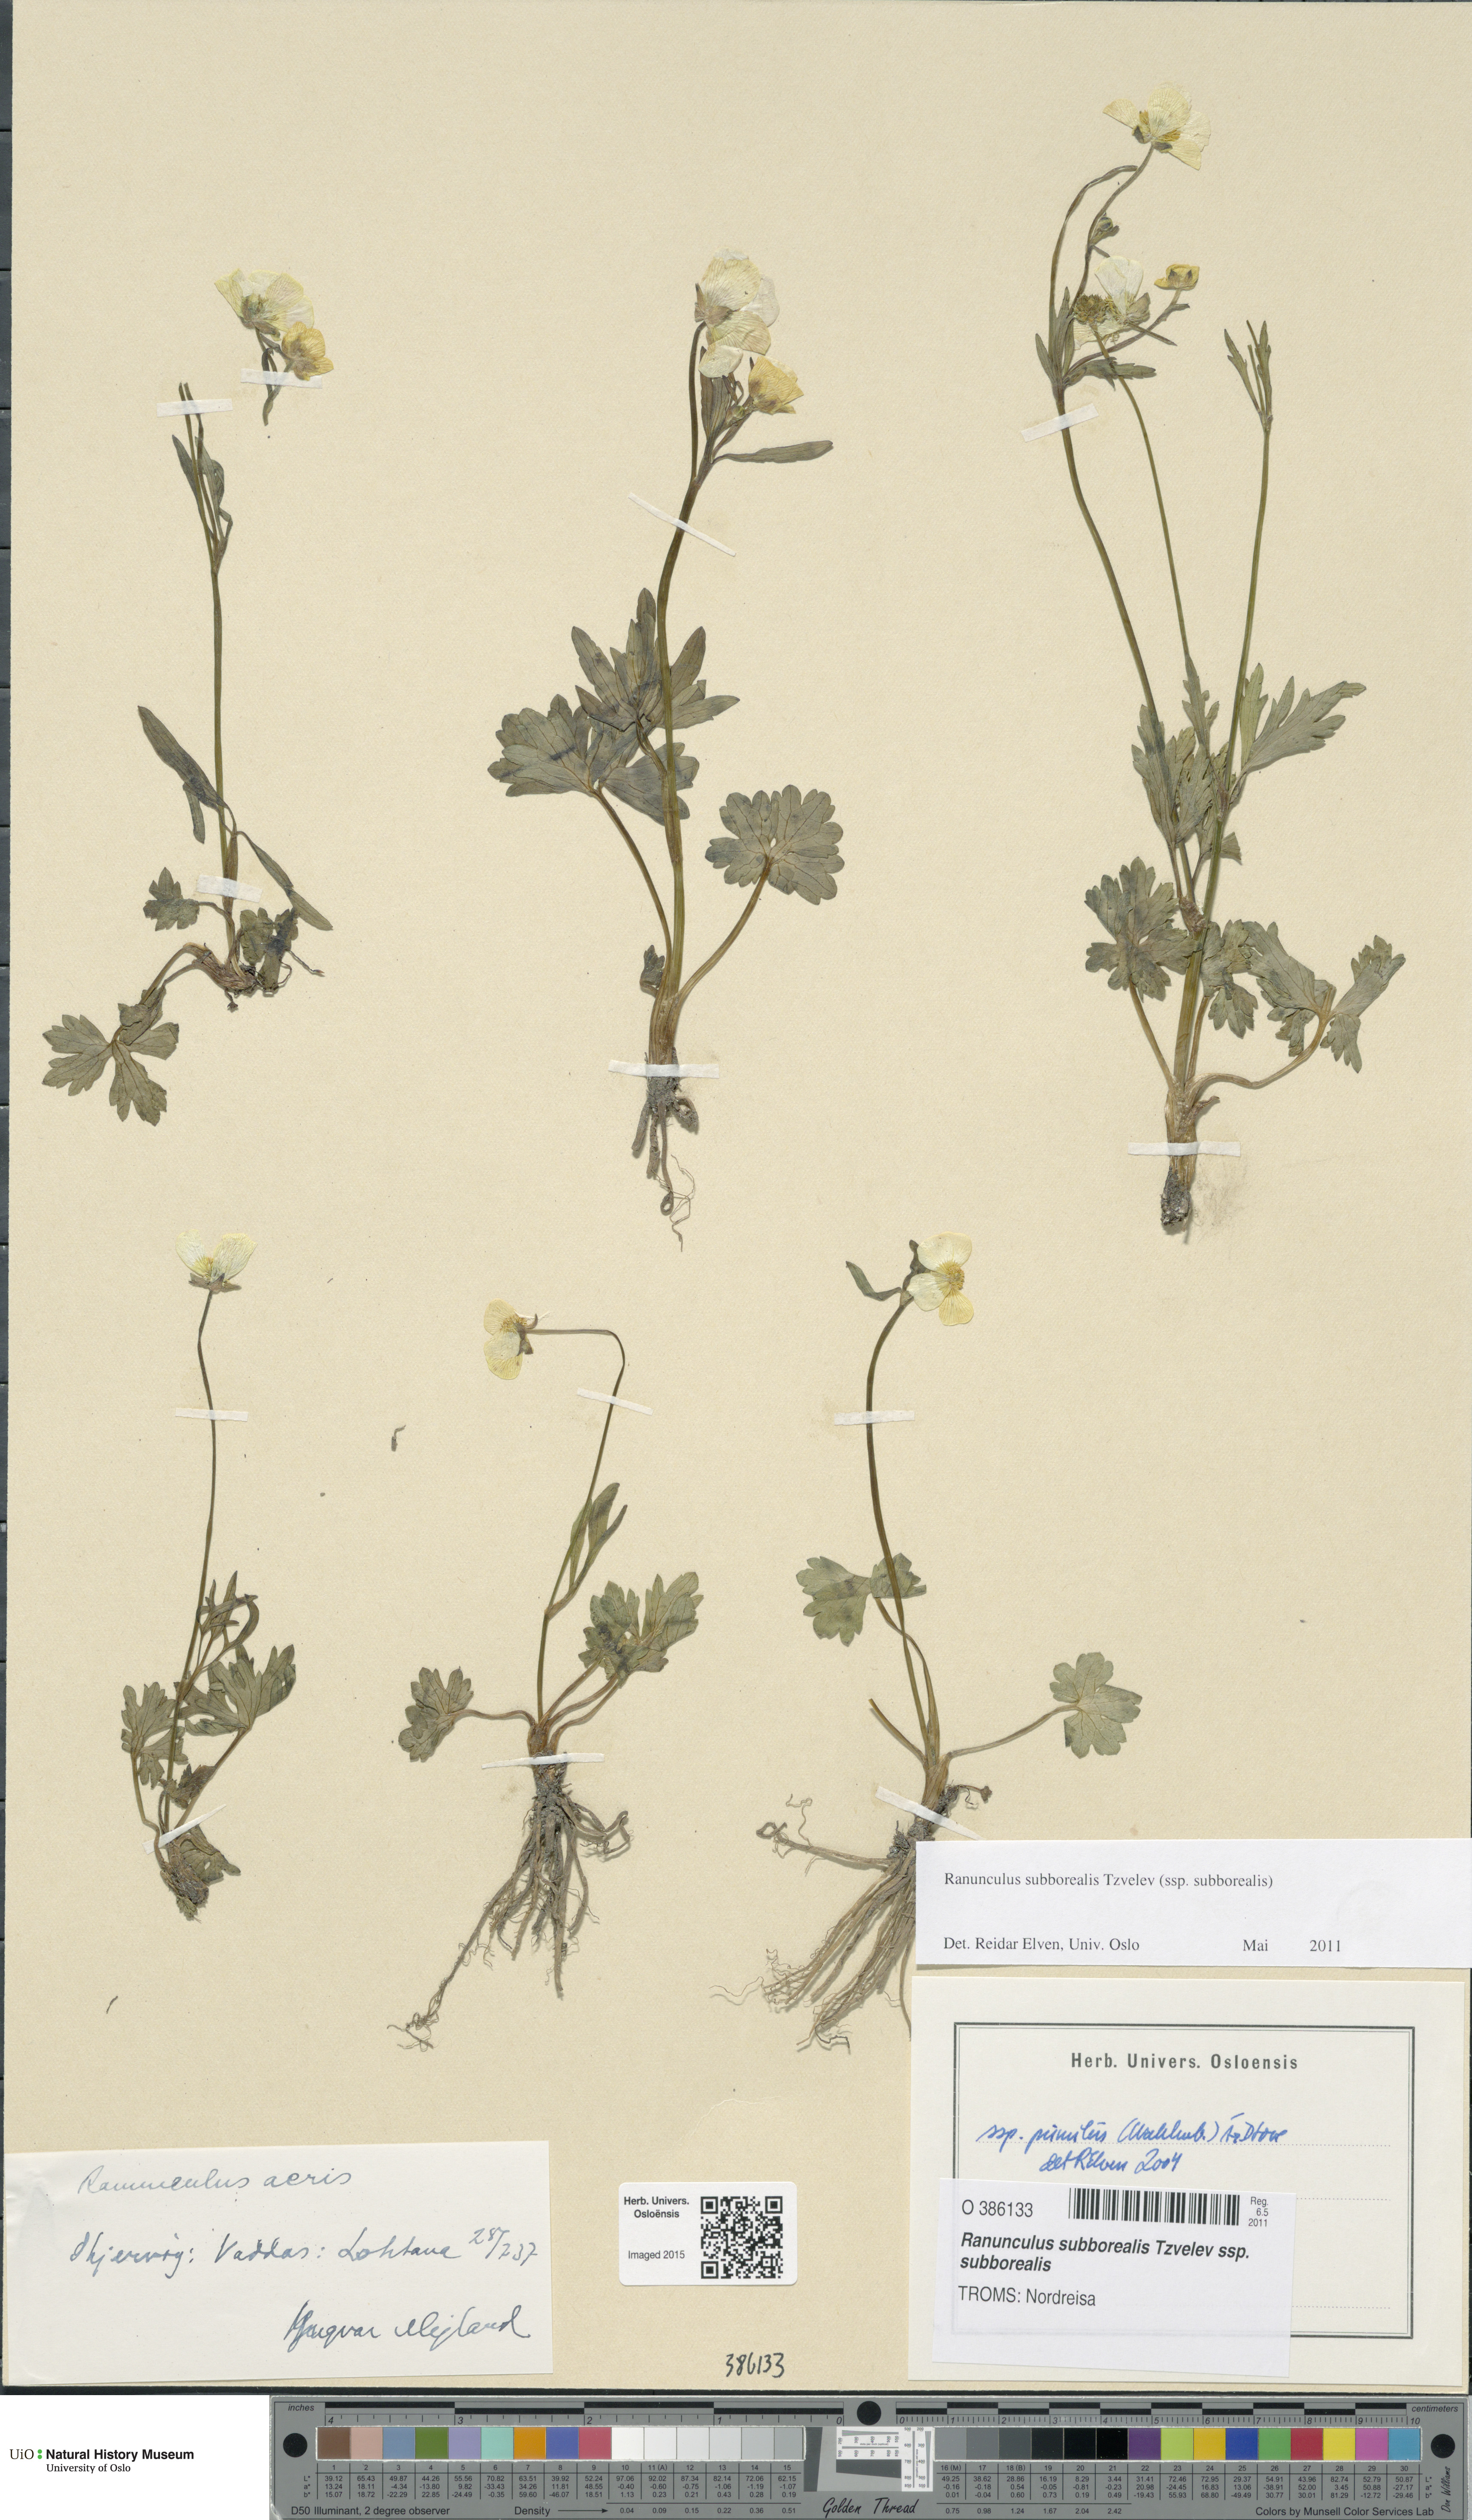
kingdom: Plantae
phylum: Tracheophyta
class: Magnoliopsida
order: Ranunculales
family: Ranunculaceae
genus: Ranunculus
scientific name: Ranunculus propinquus
